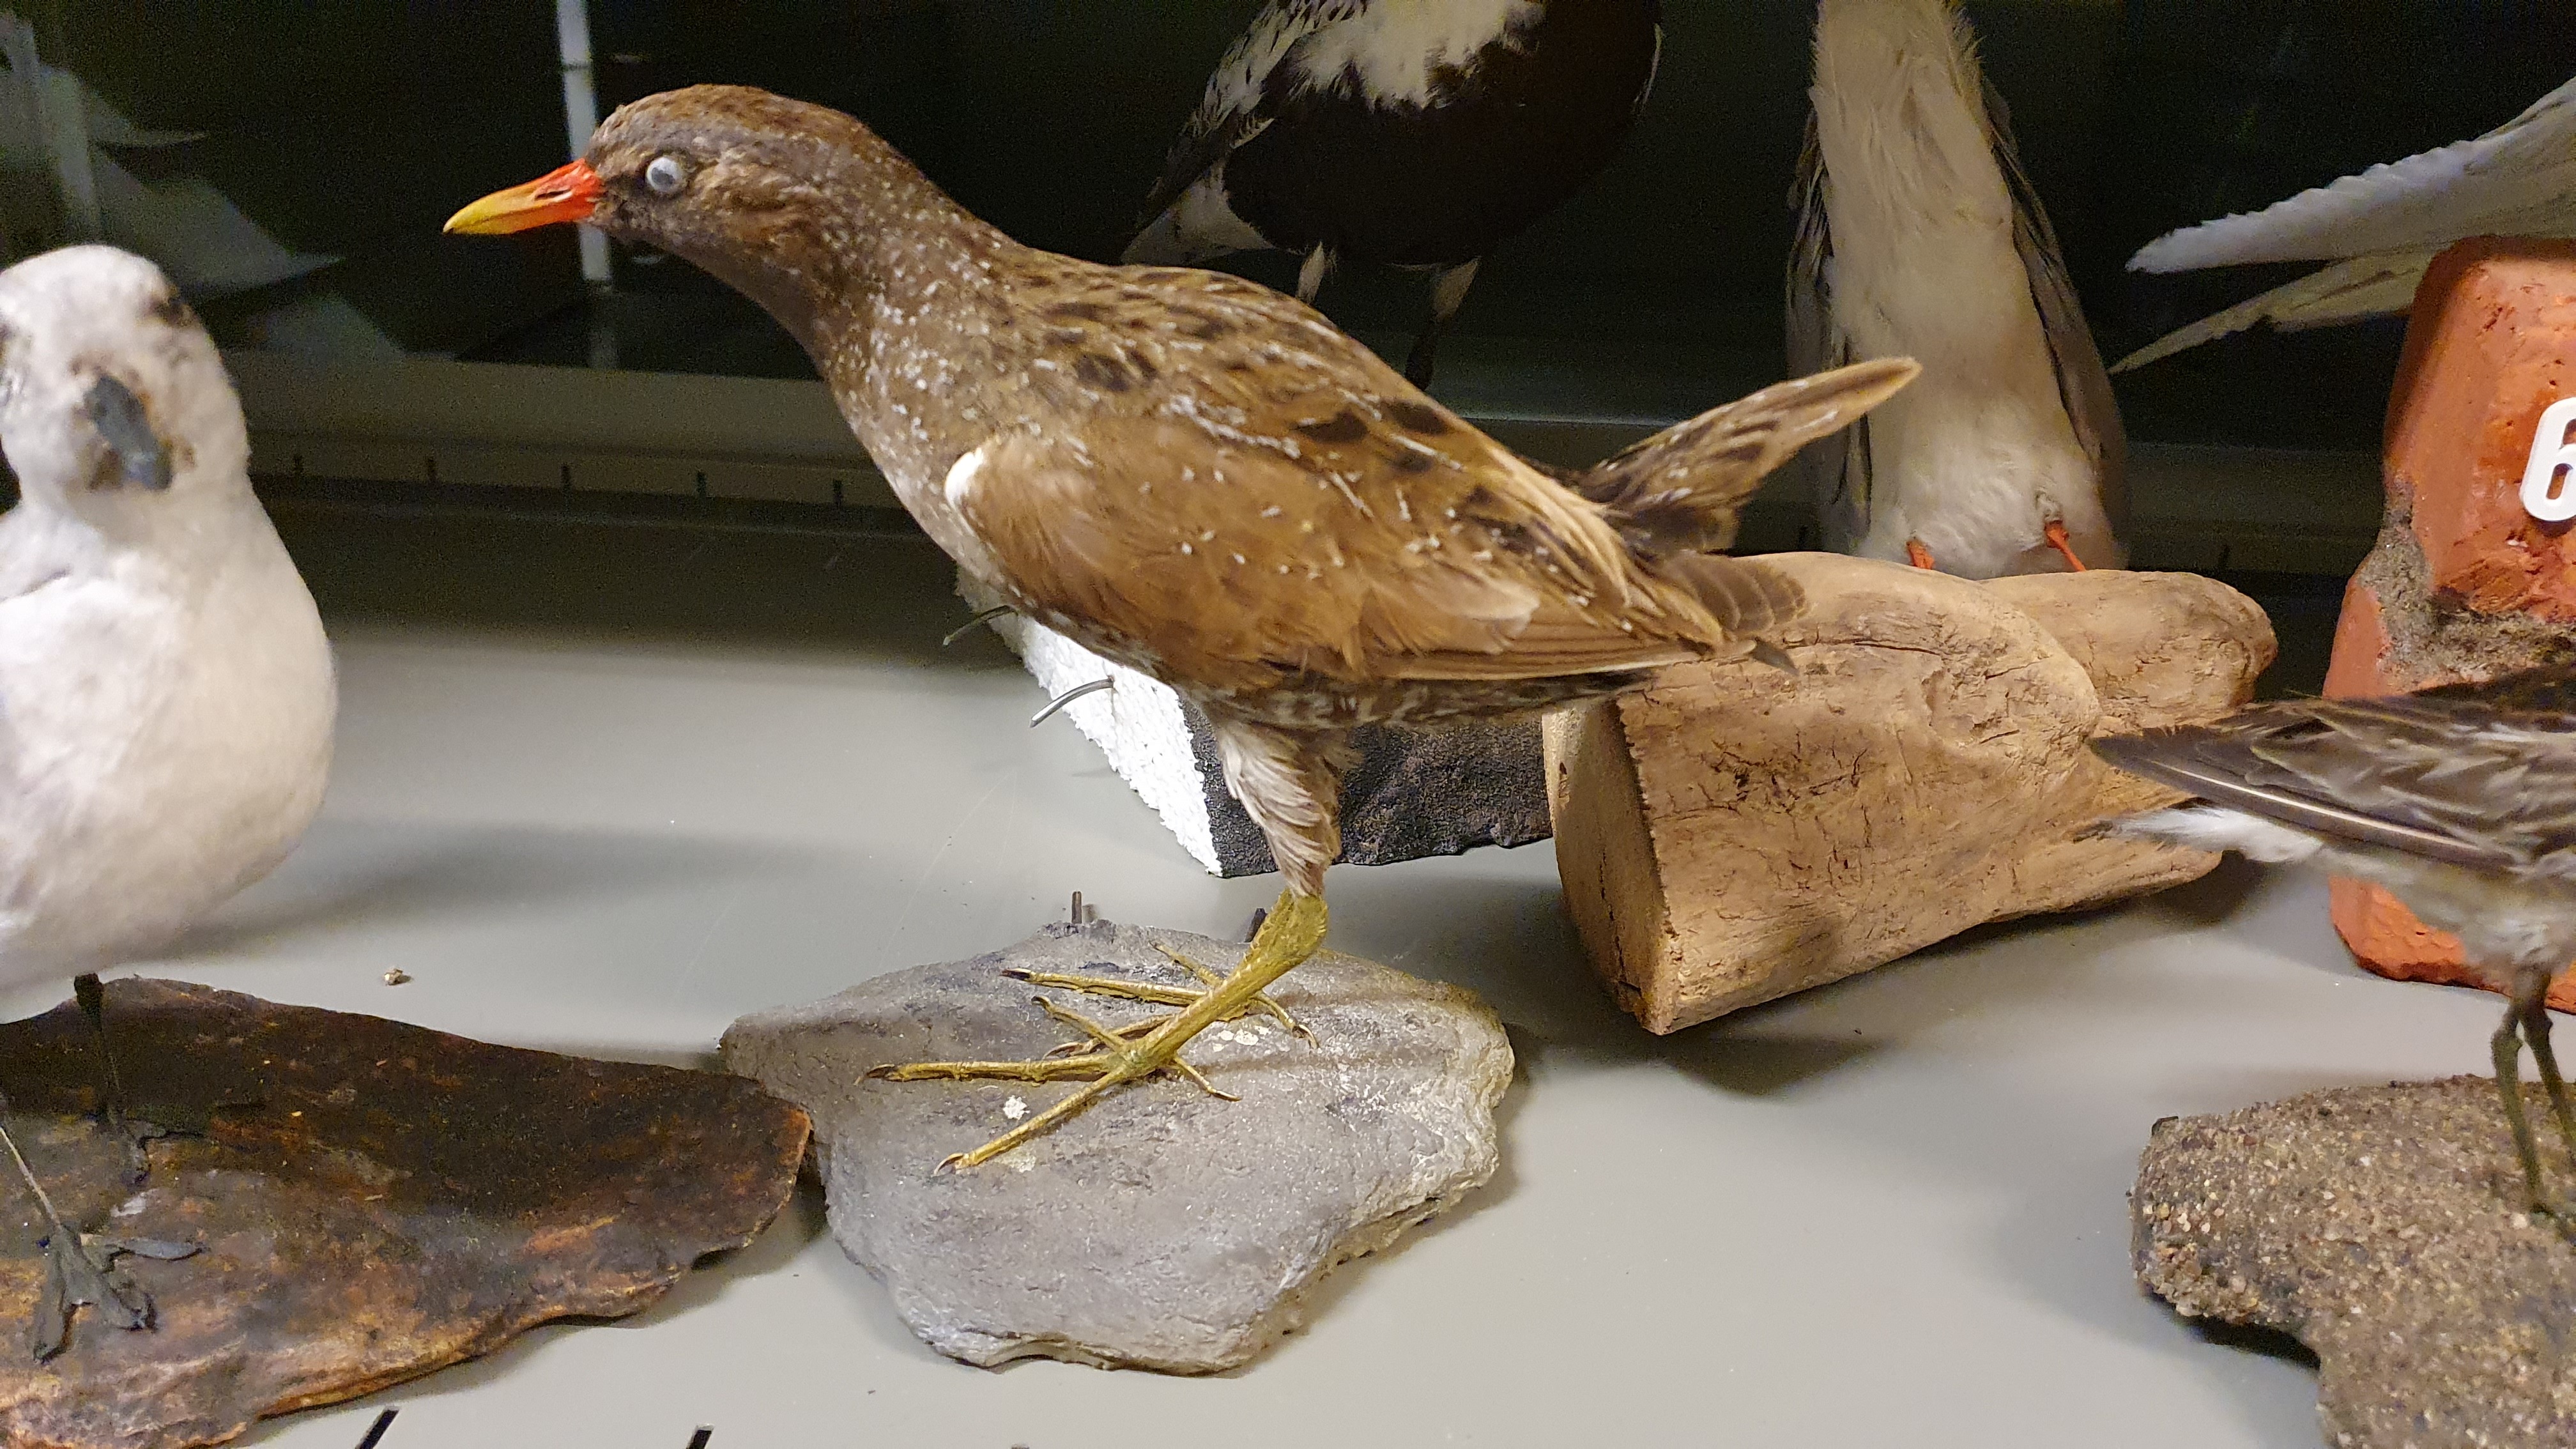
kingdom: Animalia
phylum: Chordata
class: Aves
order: Gruiformes
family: Rallidae
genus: Porzana
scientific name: Porzana porzana
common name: Spotted crake
